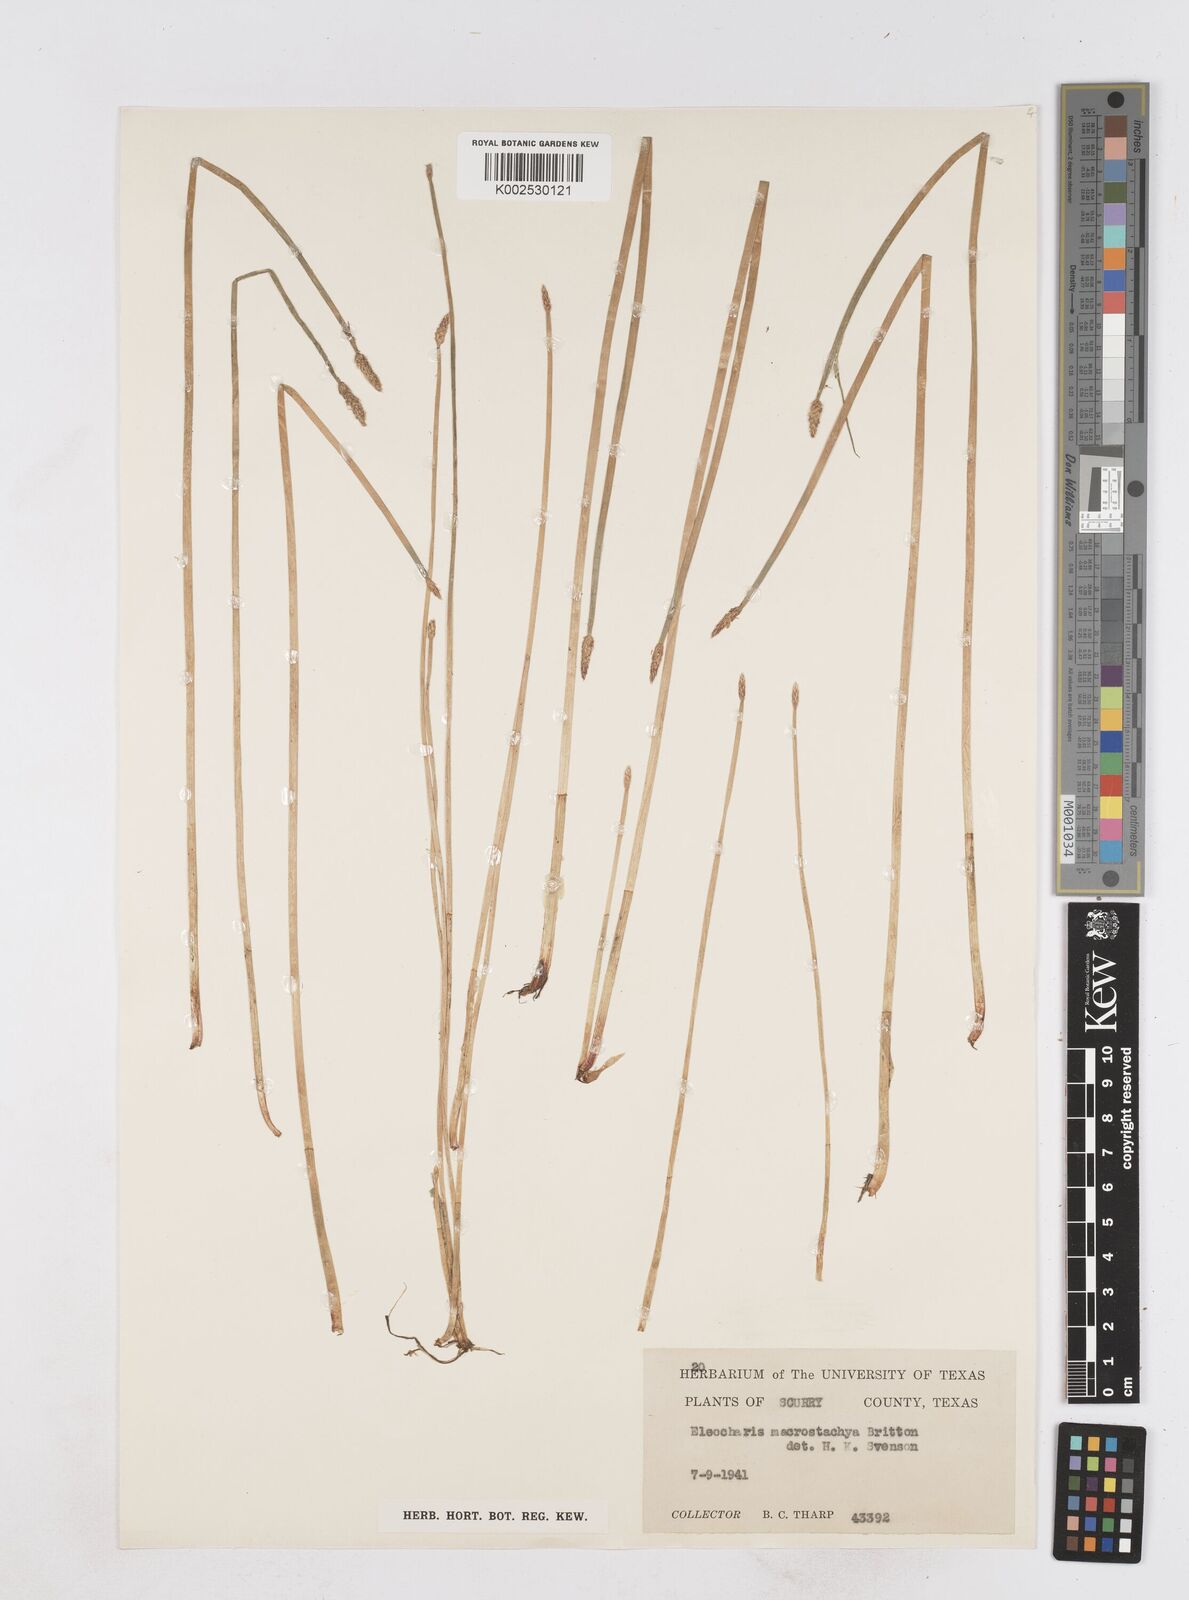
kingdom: Plantae
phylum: Tracheophyta
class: Liliopsida
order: Poales
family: Cyperaceae
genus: Eleocharis
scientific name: Eleocharis macrostachya
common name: Pale spikerush
